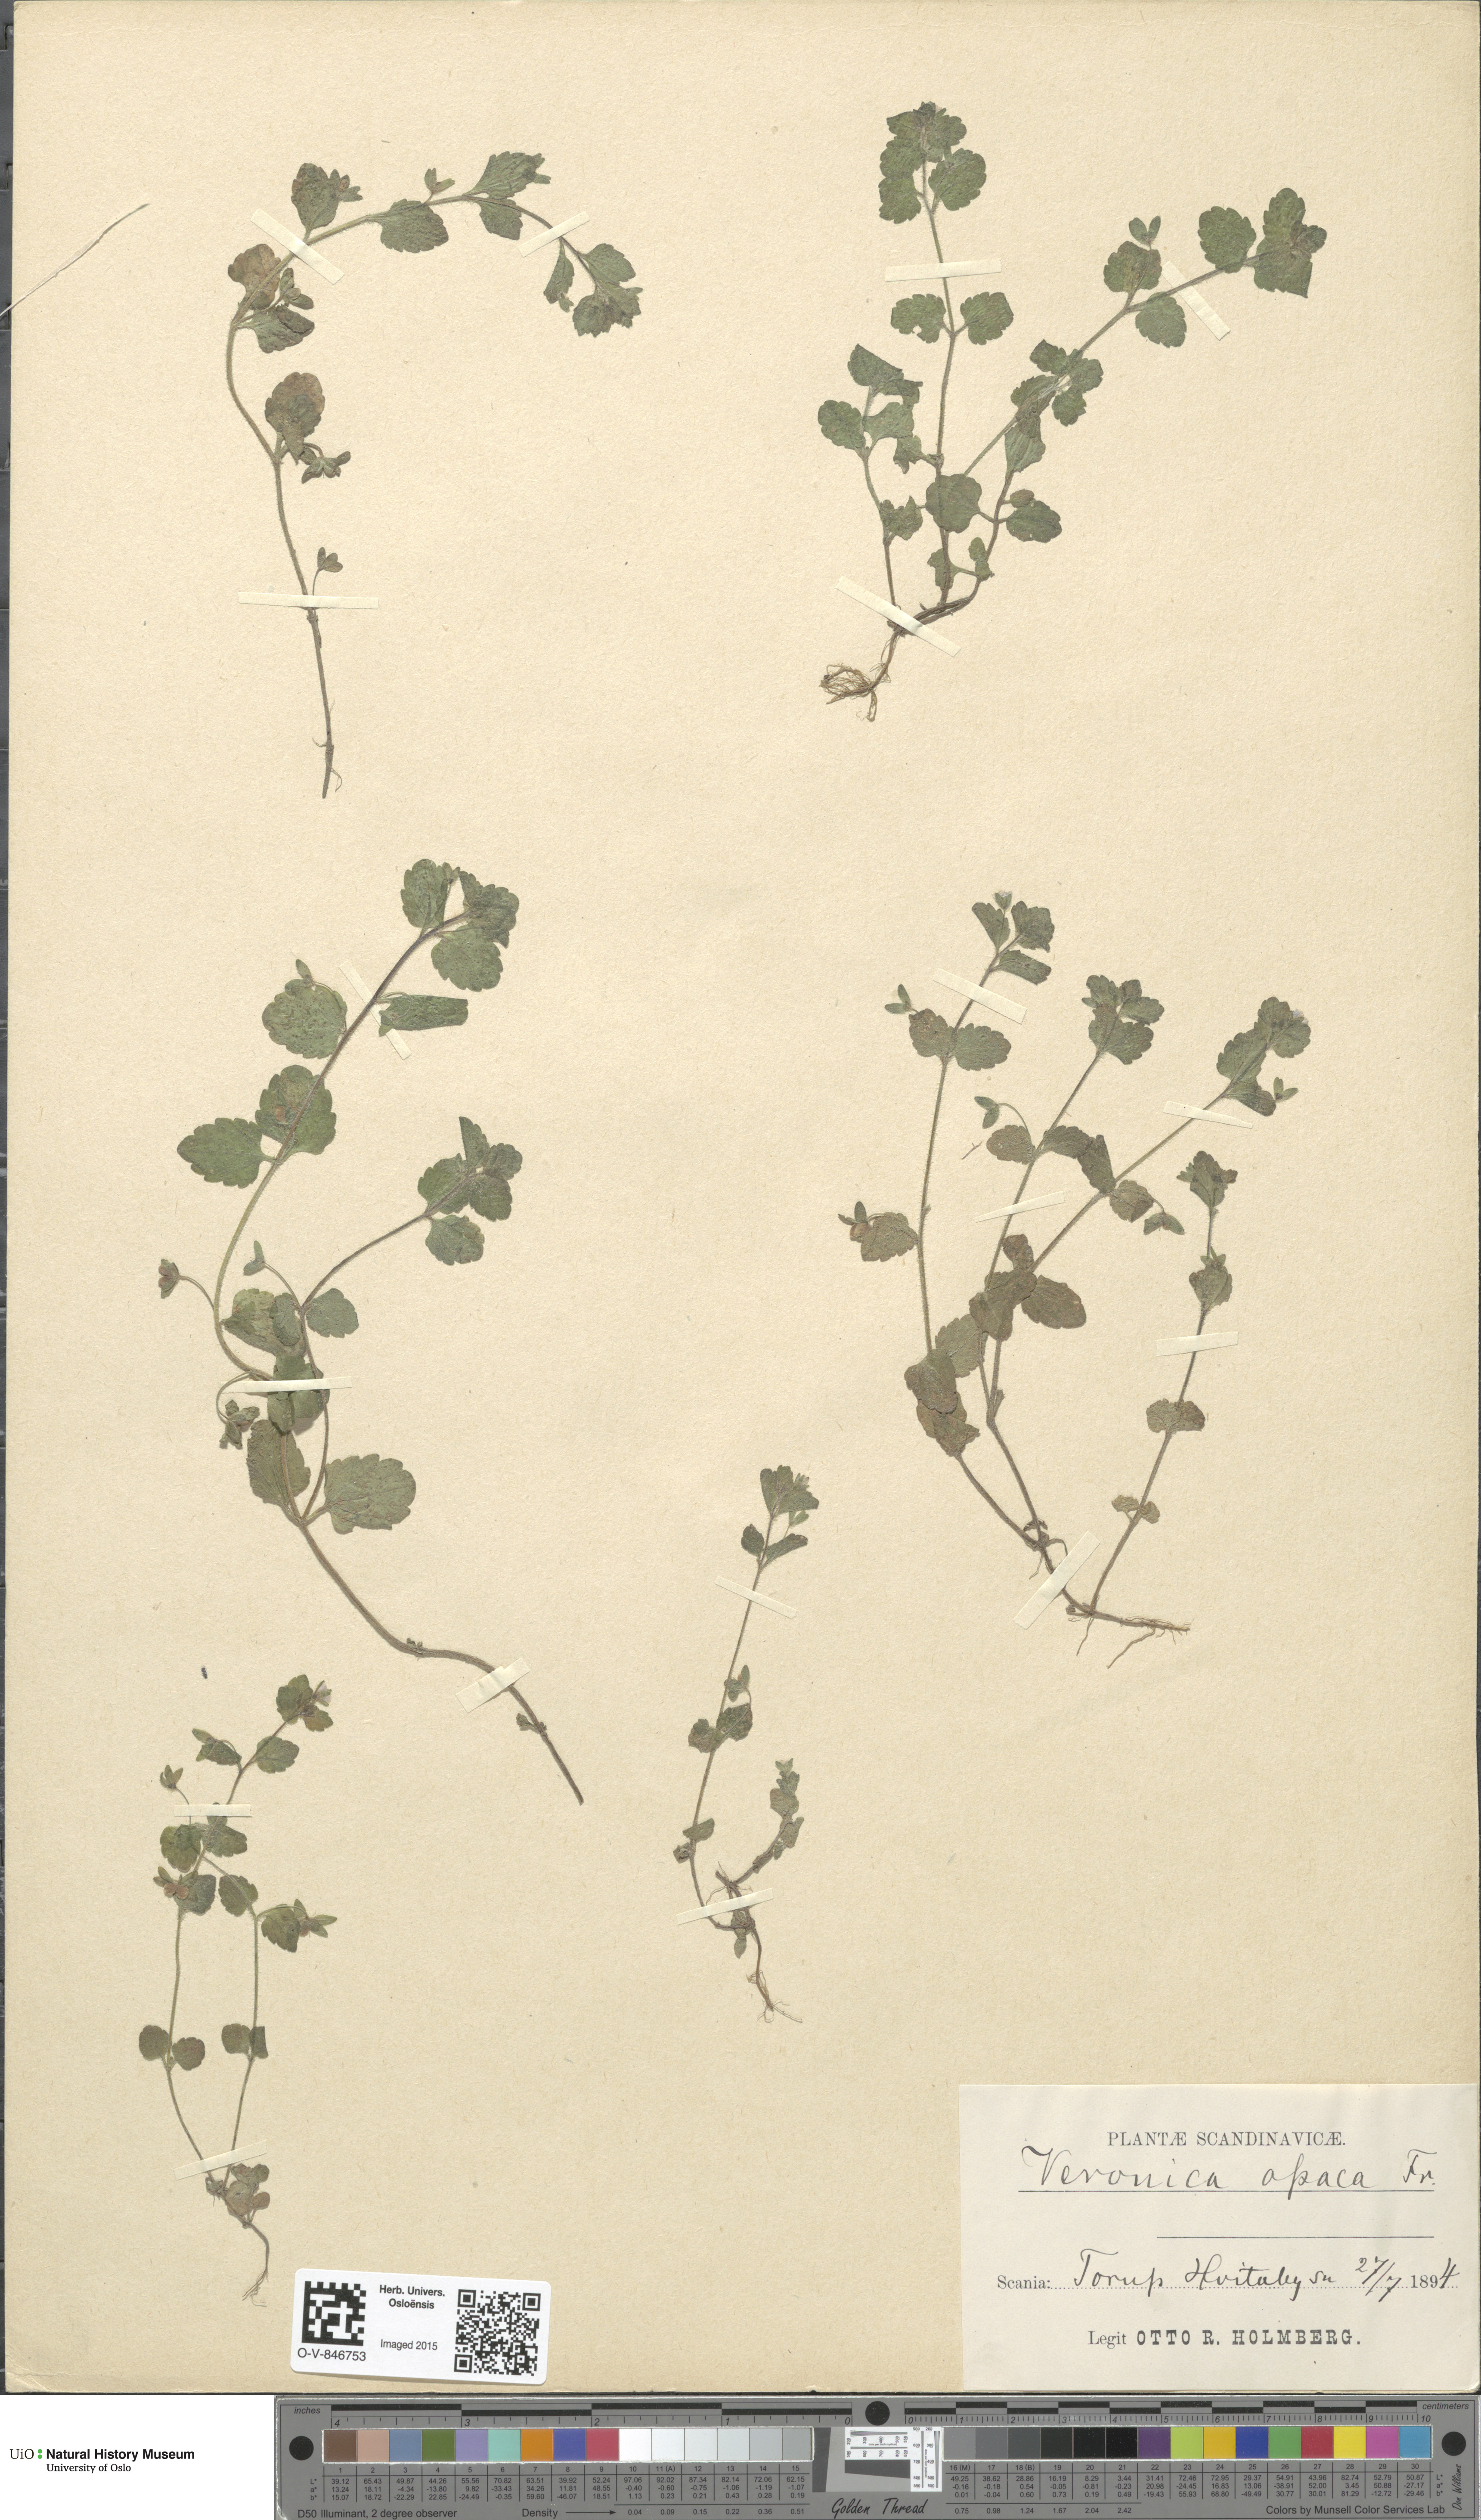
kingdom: Plantae
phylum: Tracheophyta
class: Magnoliopsida
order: Lamiales
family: Plantaginaceae
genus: Veronica
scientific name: Veronica opaca
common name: Dark speedwell
